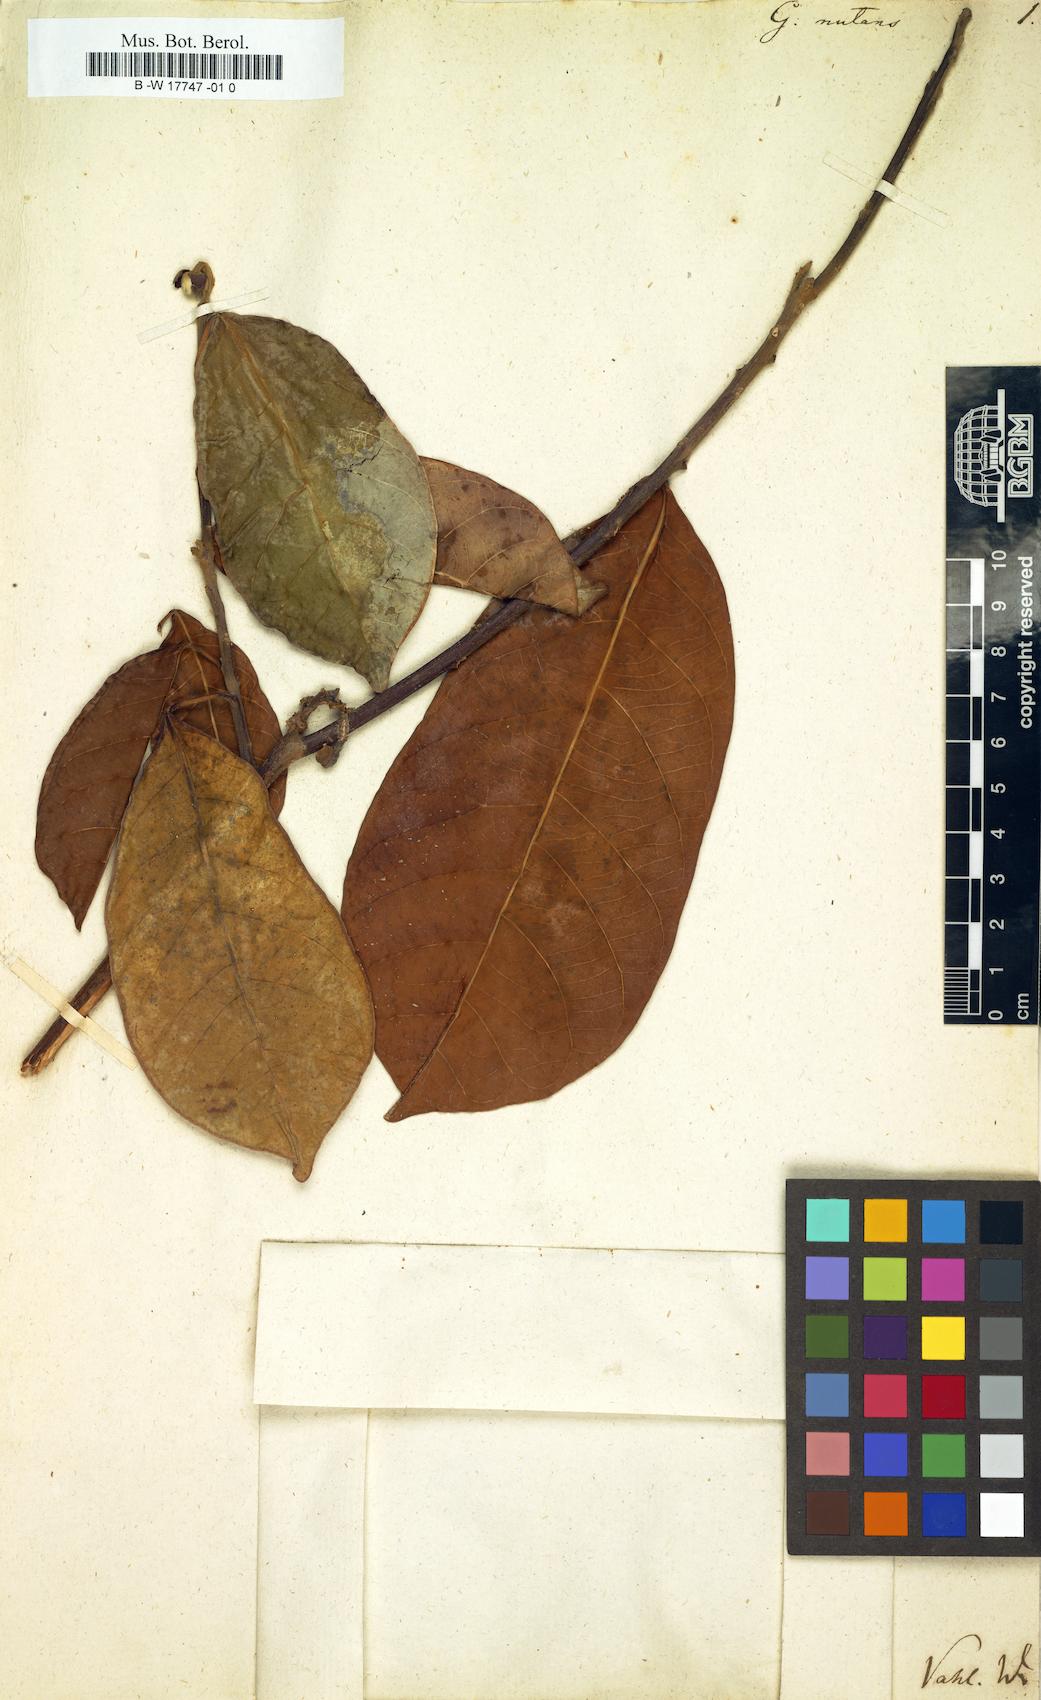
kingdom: Plantae
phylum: Tracheophyta
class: Magnoliopsida
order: Malpighiales
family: Euphorbiaceae
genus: Garcia
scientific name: Garcia nutans
